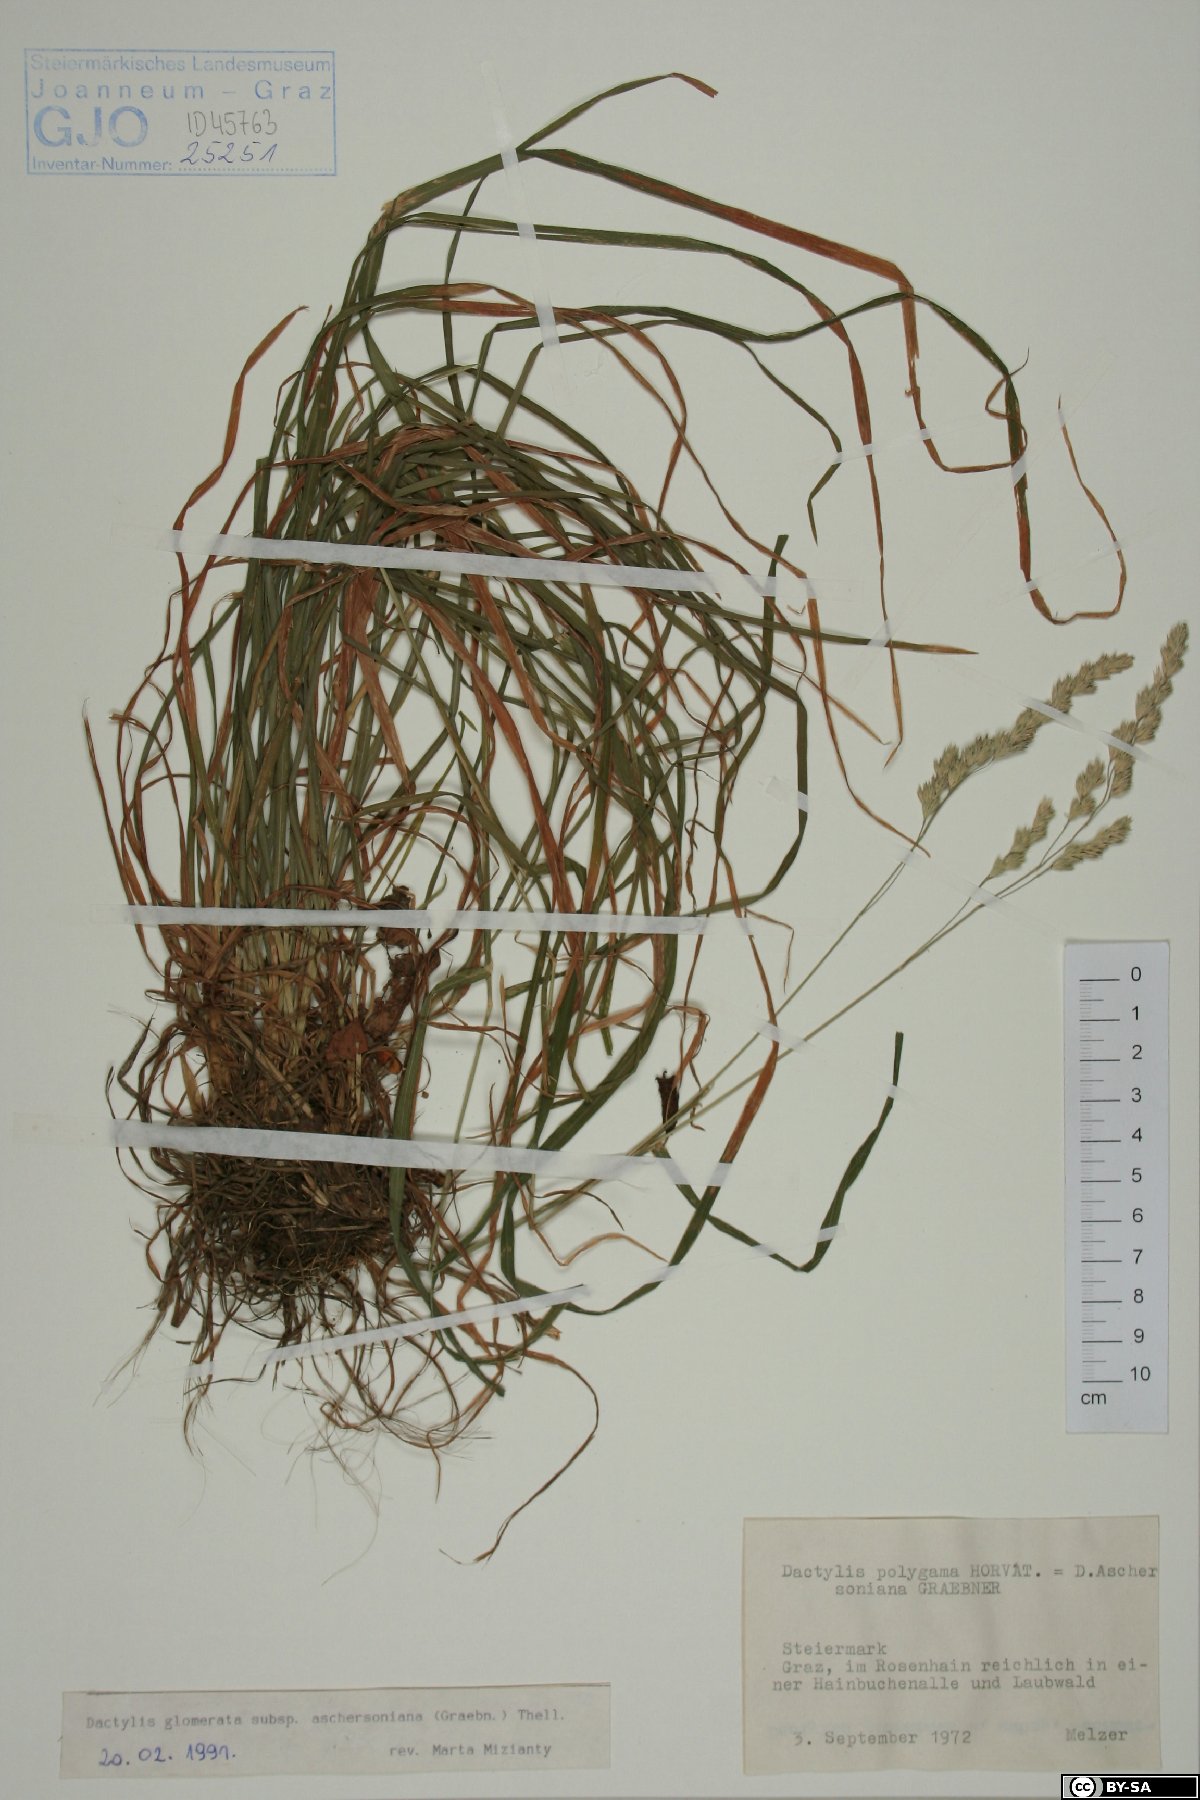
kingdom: Plantae
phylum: Tracheophyta
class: Liliopsida
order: Poales
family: Poaceae
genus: Dactylis
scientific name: Dactylis glomerata
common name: Orchardgrass
